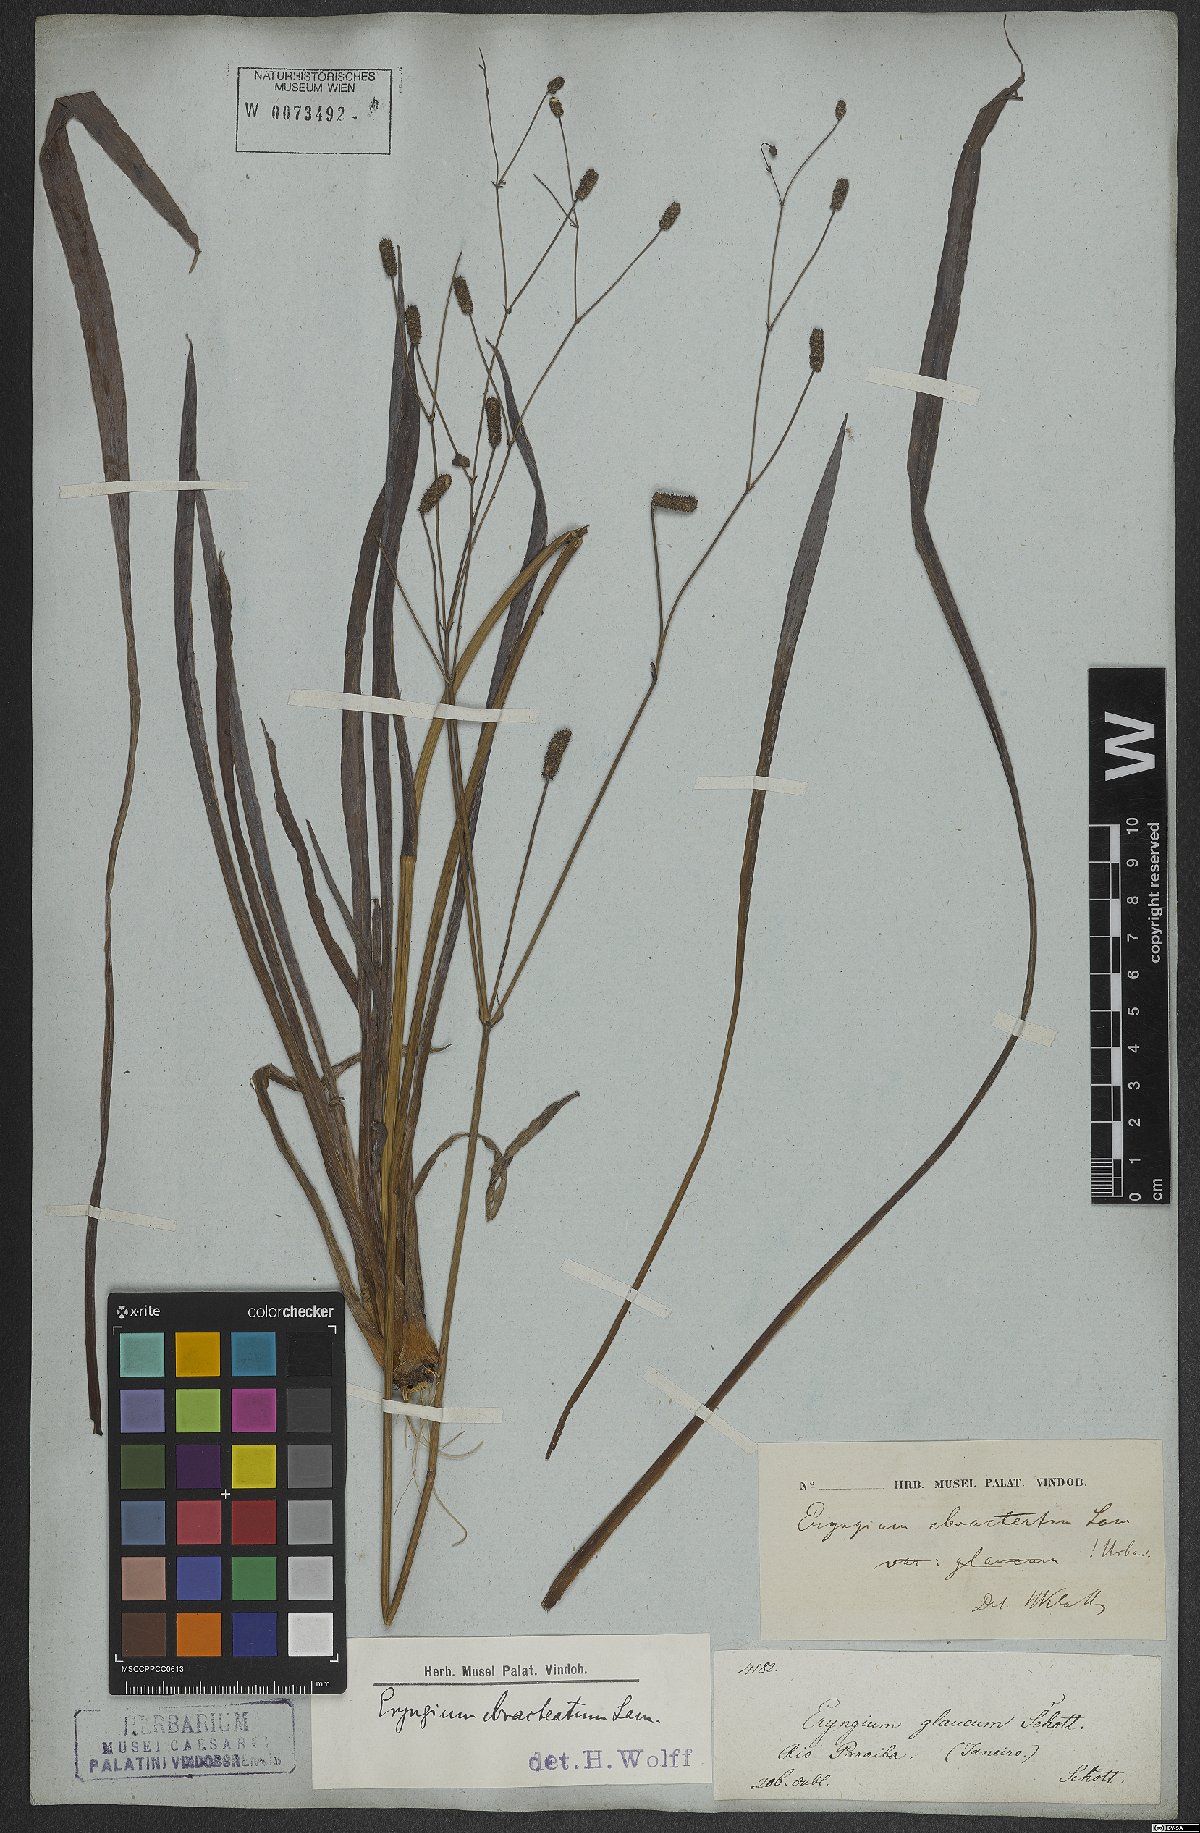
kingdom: Plantae
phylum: Tracheophyta
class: Magnoliopsida
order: Apiales
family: Apiaceae
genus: Eryngium
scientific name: Eryngium ebracteatum
